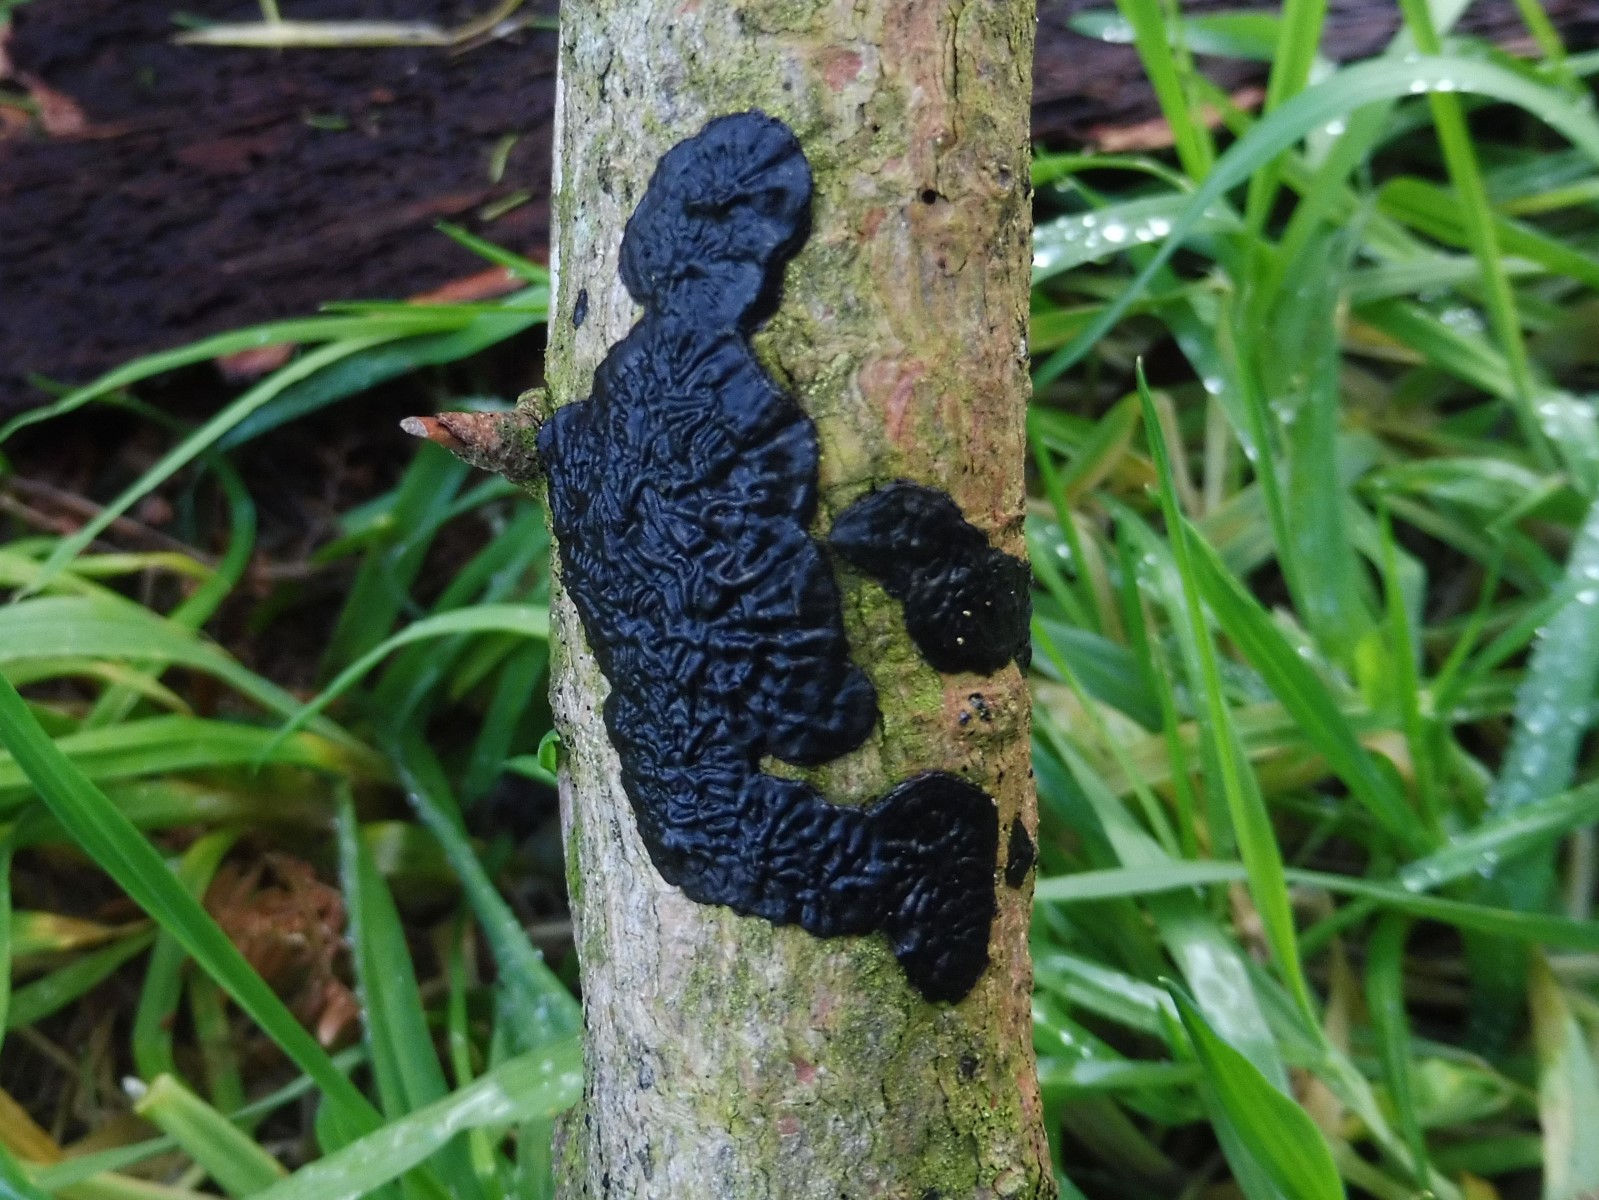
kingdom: Fungi
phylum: Basidiomycota
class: Agaricomycetes
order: Auriculariales
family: Auriculariaceae
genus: Exidia
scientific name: Exidia pithya
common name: gran-bævretop
